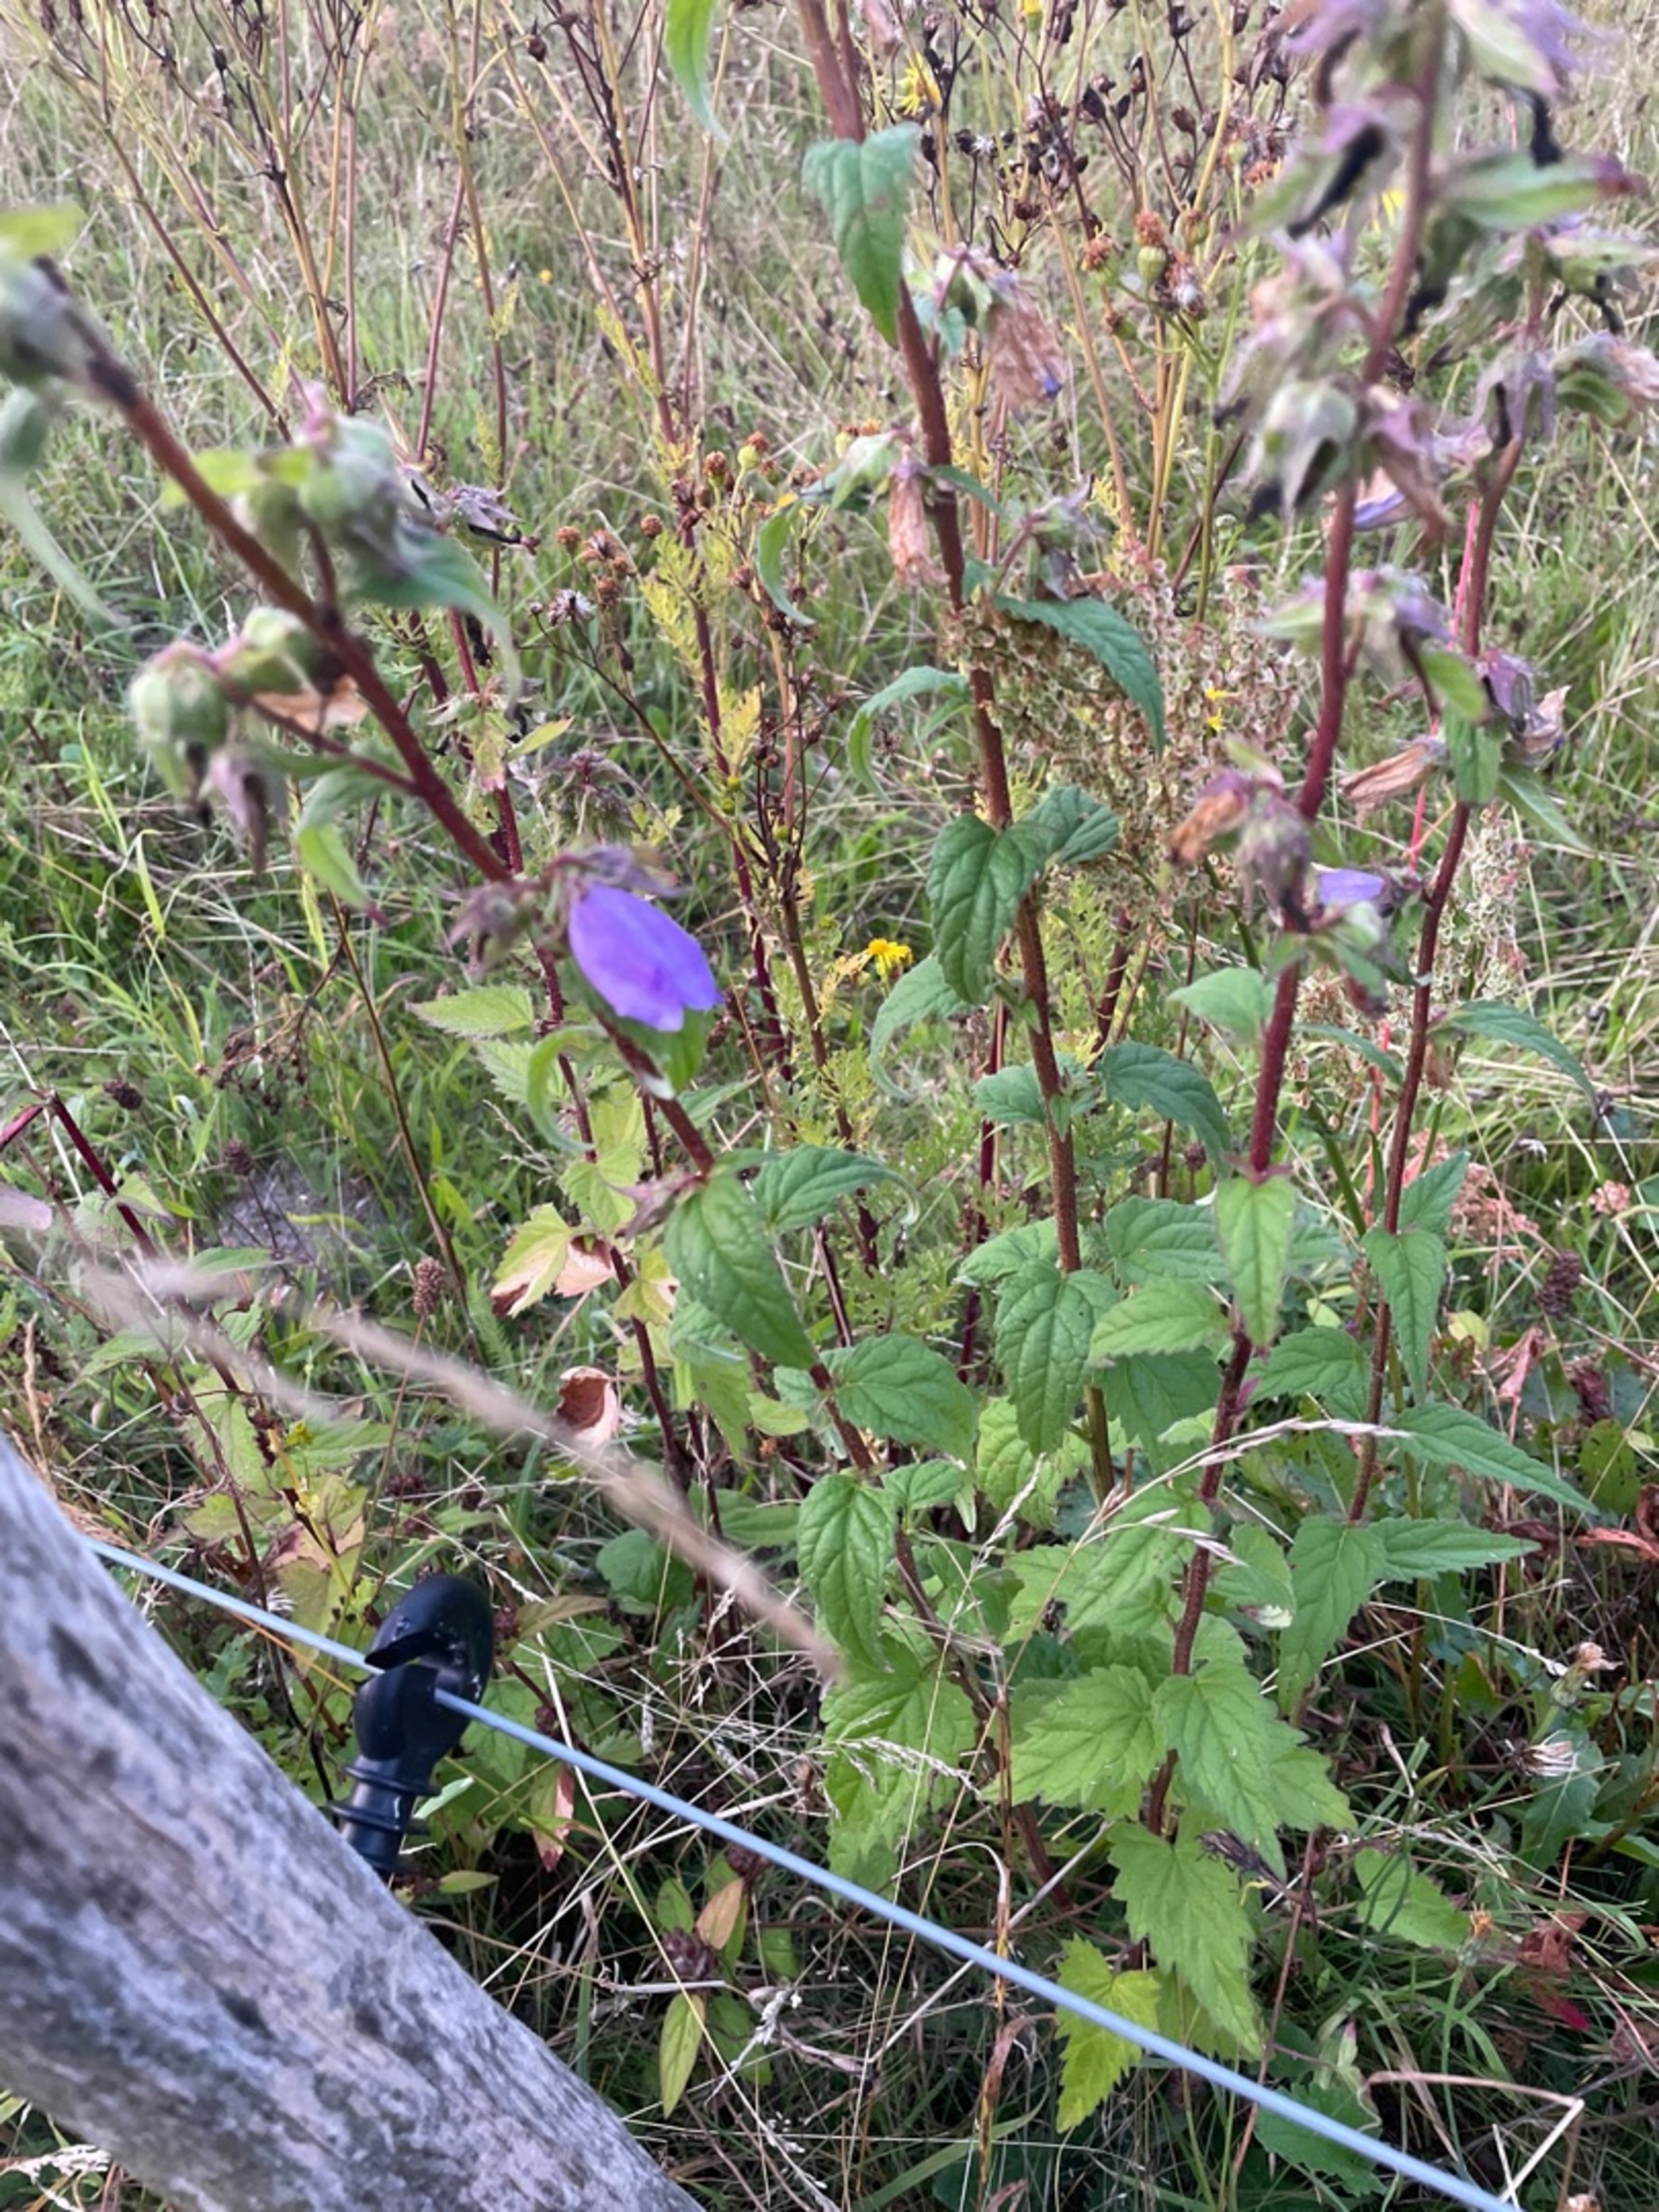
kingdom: Plantae
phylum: Tracheophyta
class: Magnoliopsida
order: Asterales
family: Campanulaceae
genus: Campanula
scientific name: Campanula trachelium
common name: Nælde-klokke
